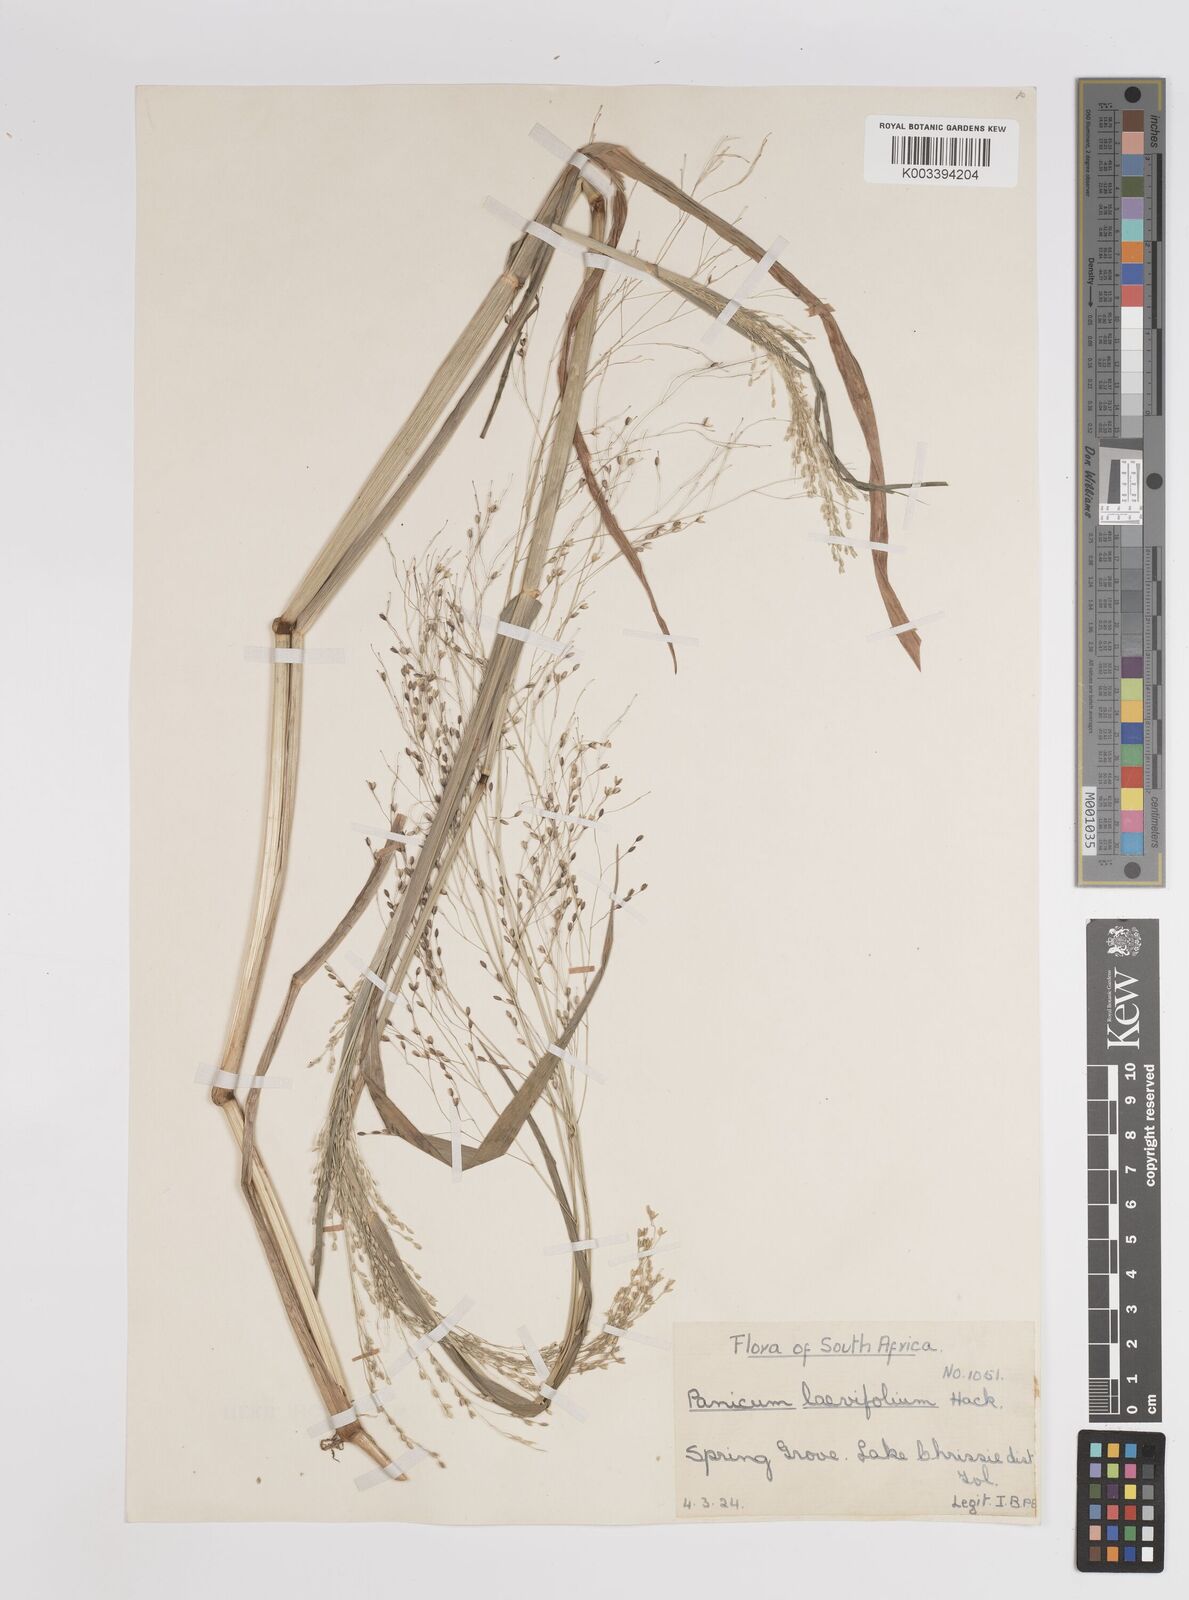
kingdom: Plantae
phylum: Tracheophyta
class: Liliopsida
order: Poales
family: Poaceae
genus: Panicum
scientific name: Panicum schinzii
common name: Sweet grass
